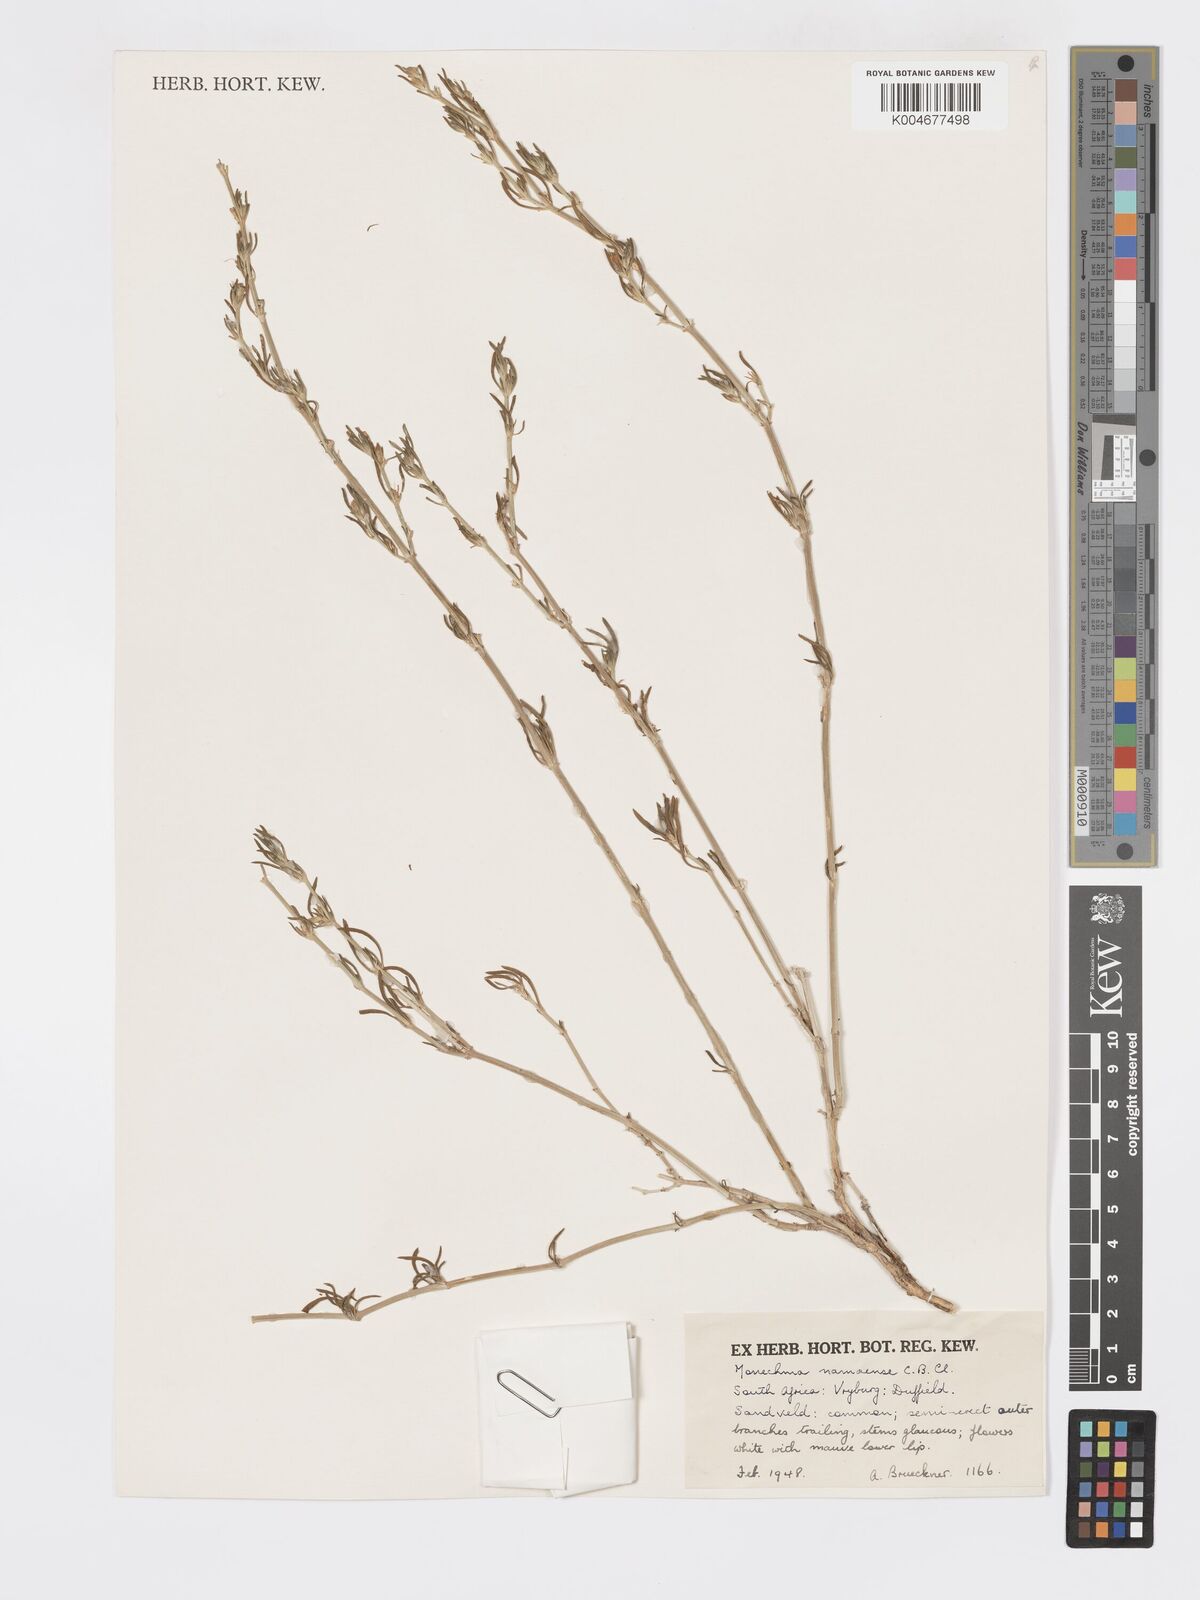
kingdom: Plantae
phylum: Tracheophyta
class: Magnoliopsida
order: Lamiales
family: Acanthaceae
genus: Pogonospermum
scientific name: Pogonospermum
